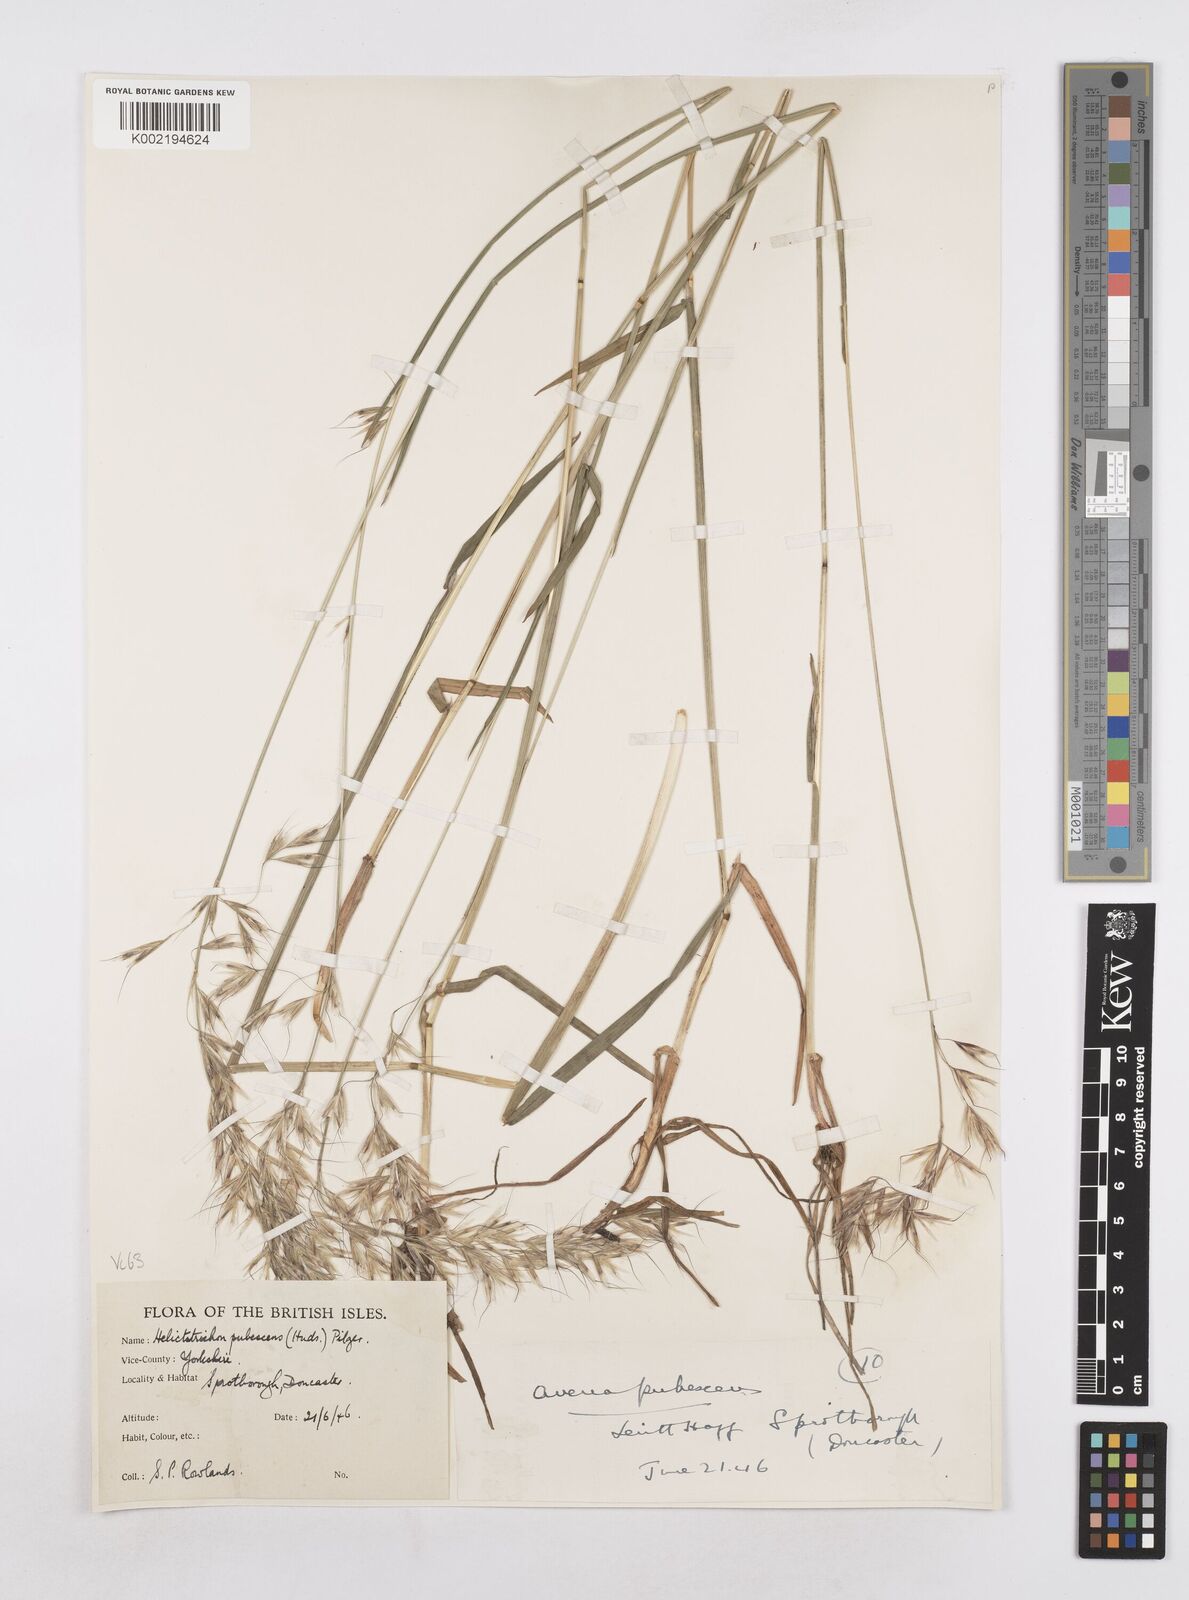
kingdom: Plantae
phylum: Tracheophyta
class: Liliopsida
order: Poales
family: Poaceae
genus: Avenula
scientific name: Avenula pubescens
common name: Downy alpine oatgrass
